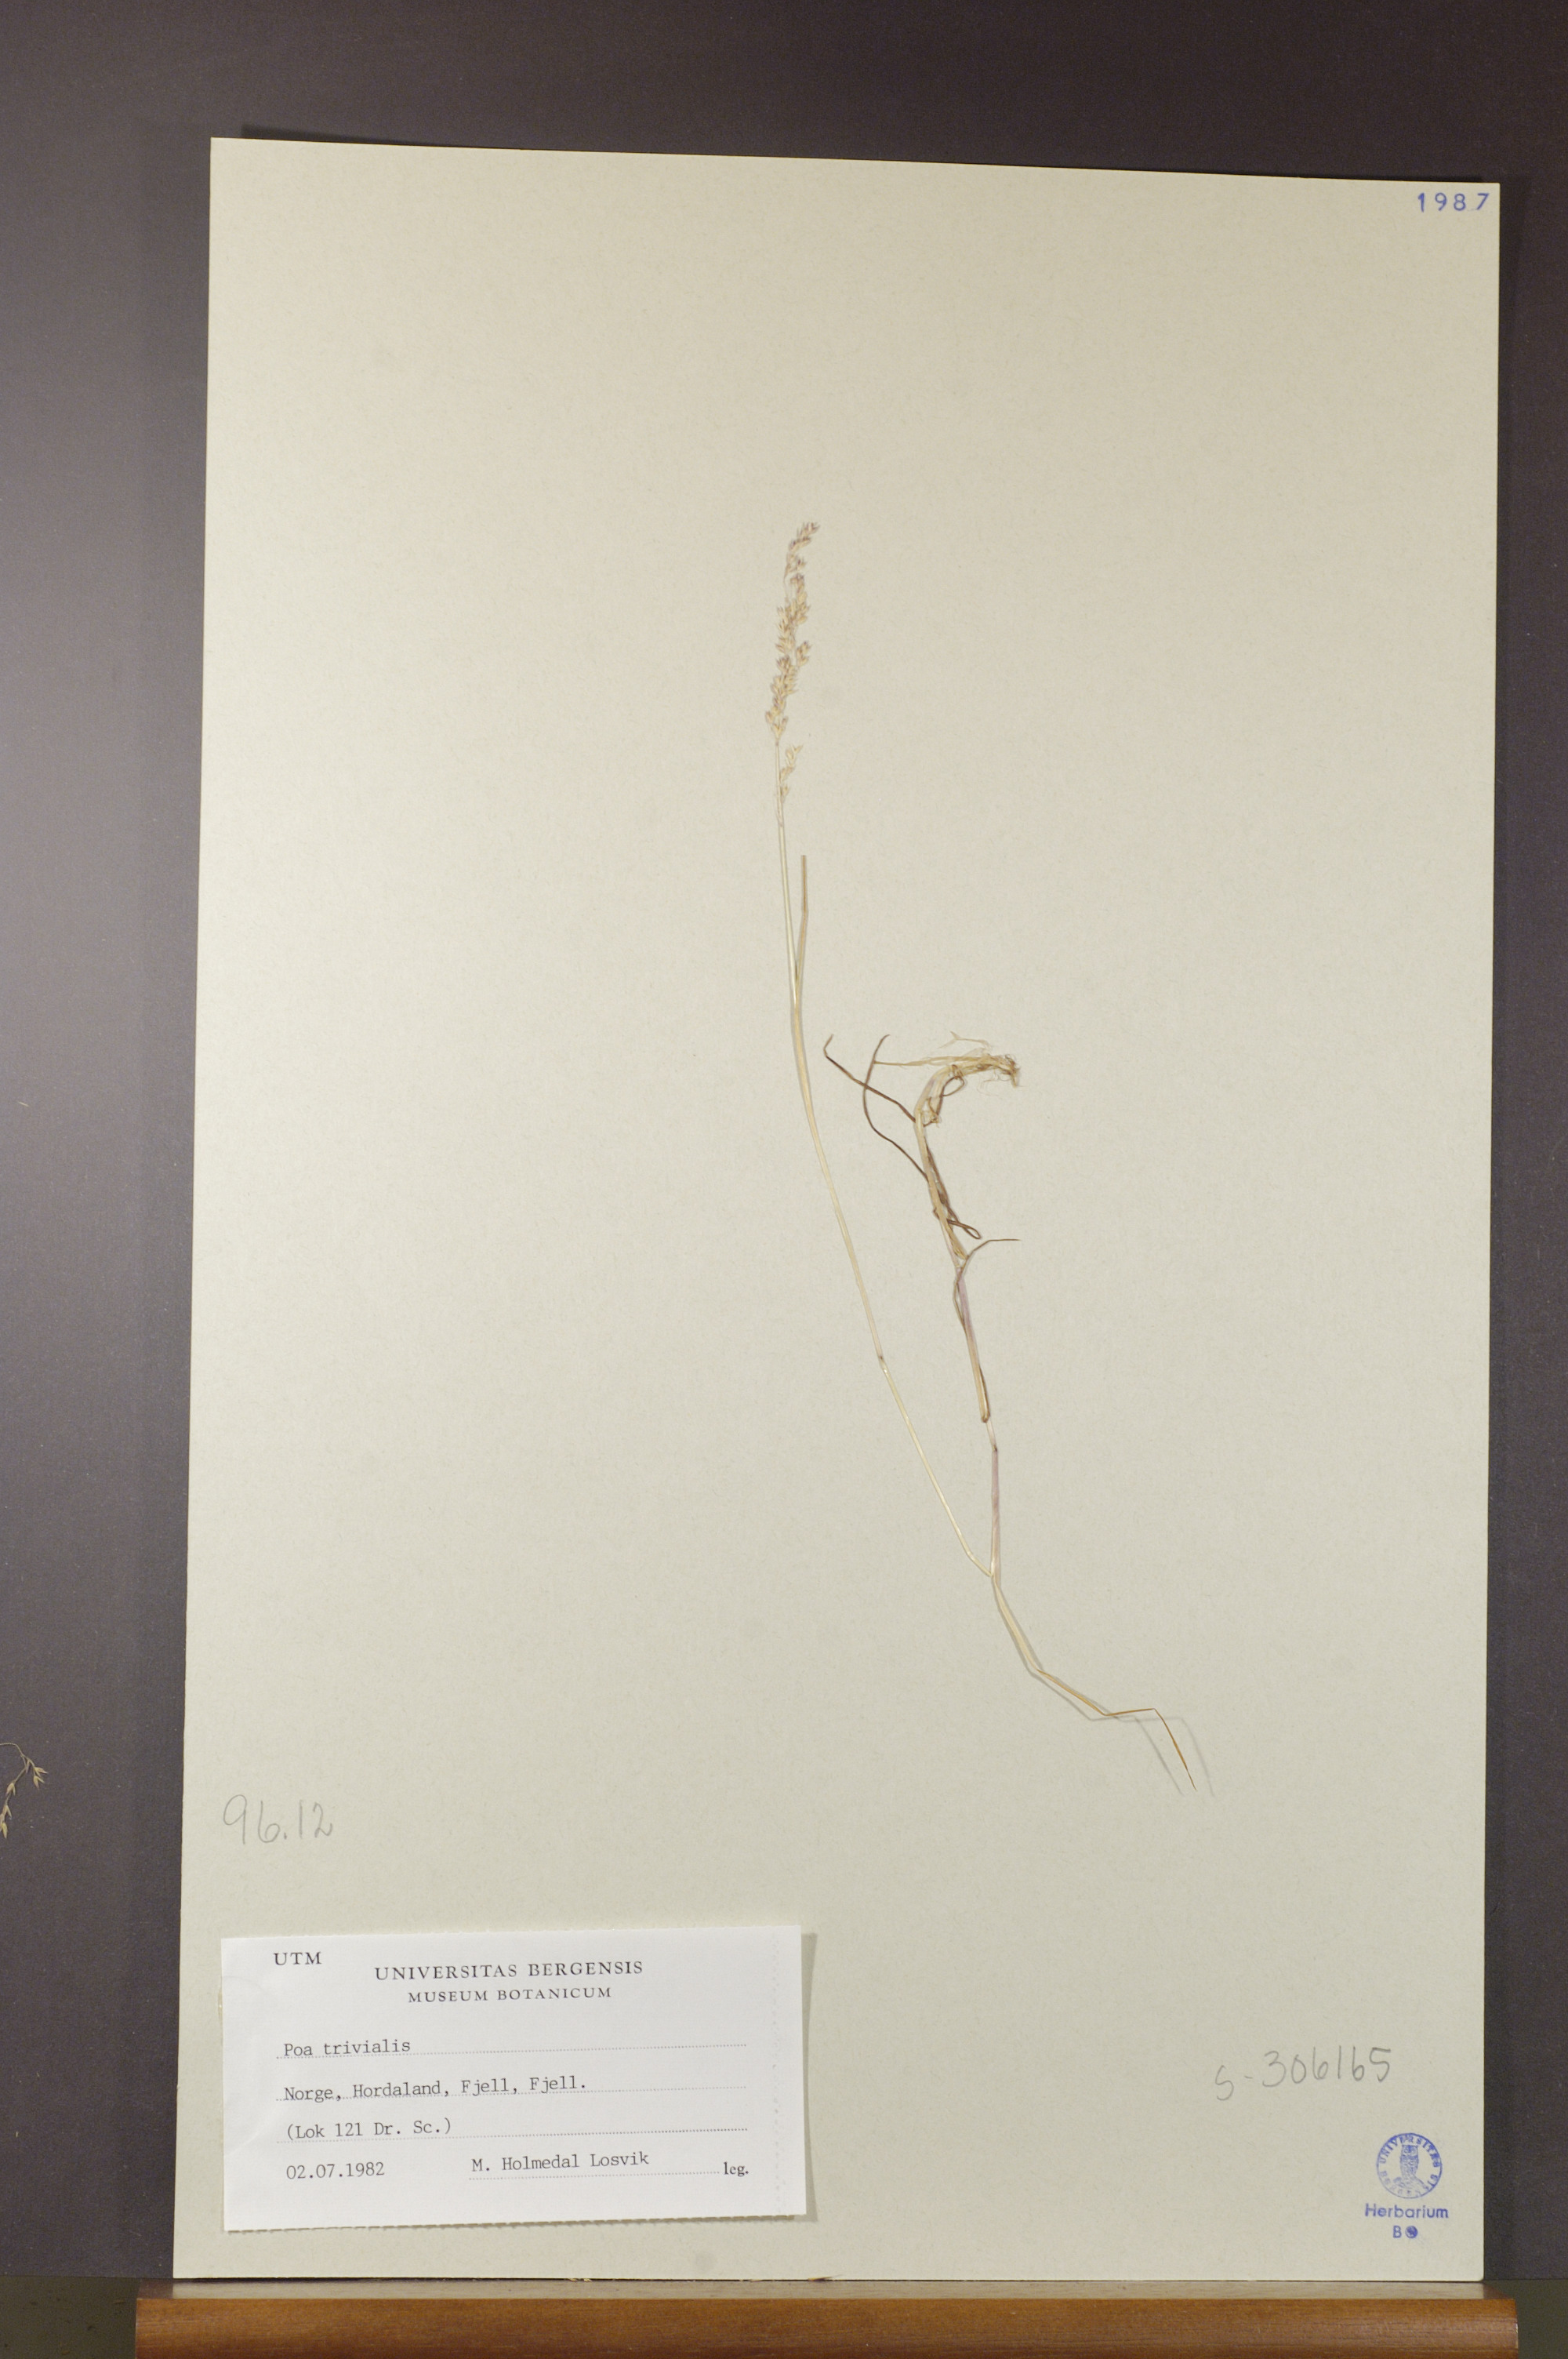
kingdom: Plantae
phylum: Tracheophyta
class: Liliopsida
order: Poales
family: Poaceae
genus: Poa
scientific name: Poa trivialis
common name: Rough bluegrass
